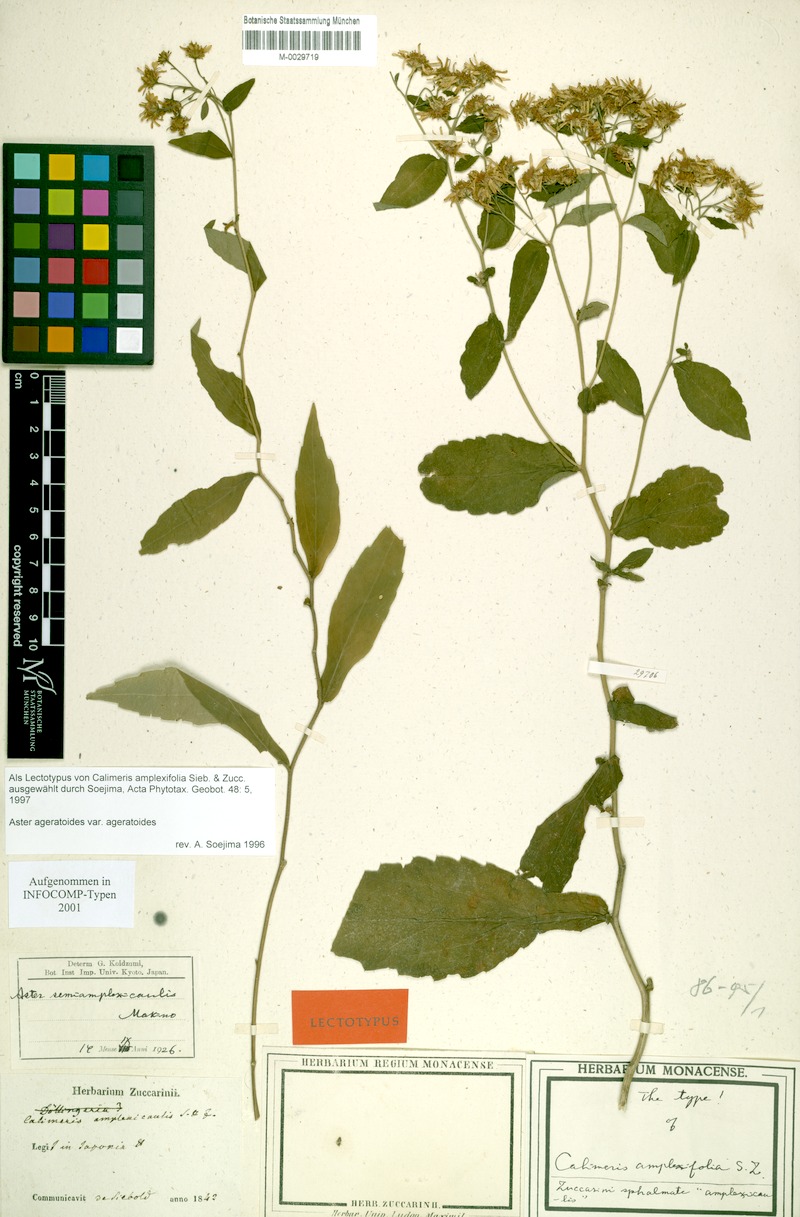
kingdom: Plantae
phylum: Tracheophyta
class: Magnoliopsida
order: Asterales
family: Asteraceae
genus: Aster
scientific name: Aster ageratoides
